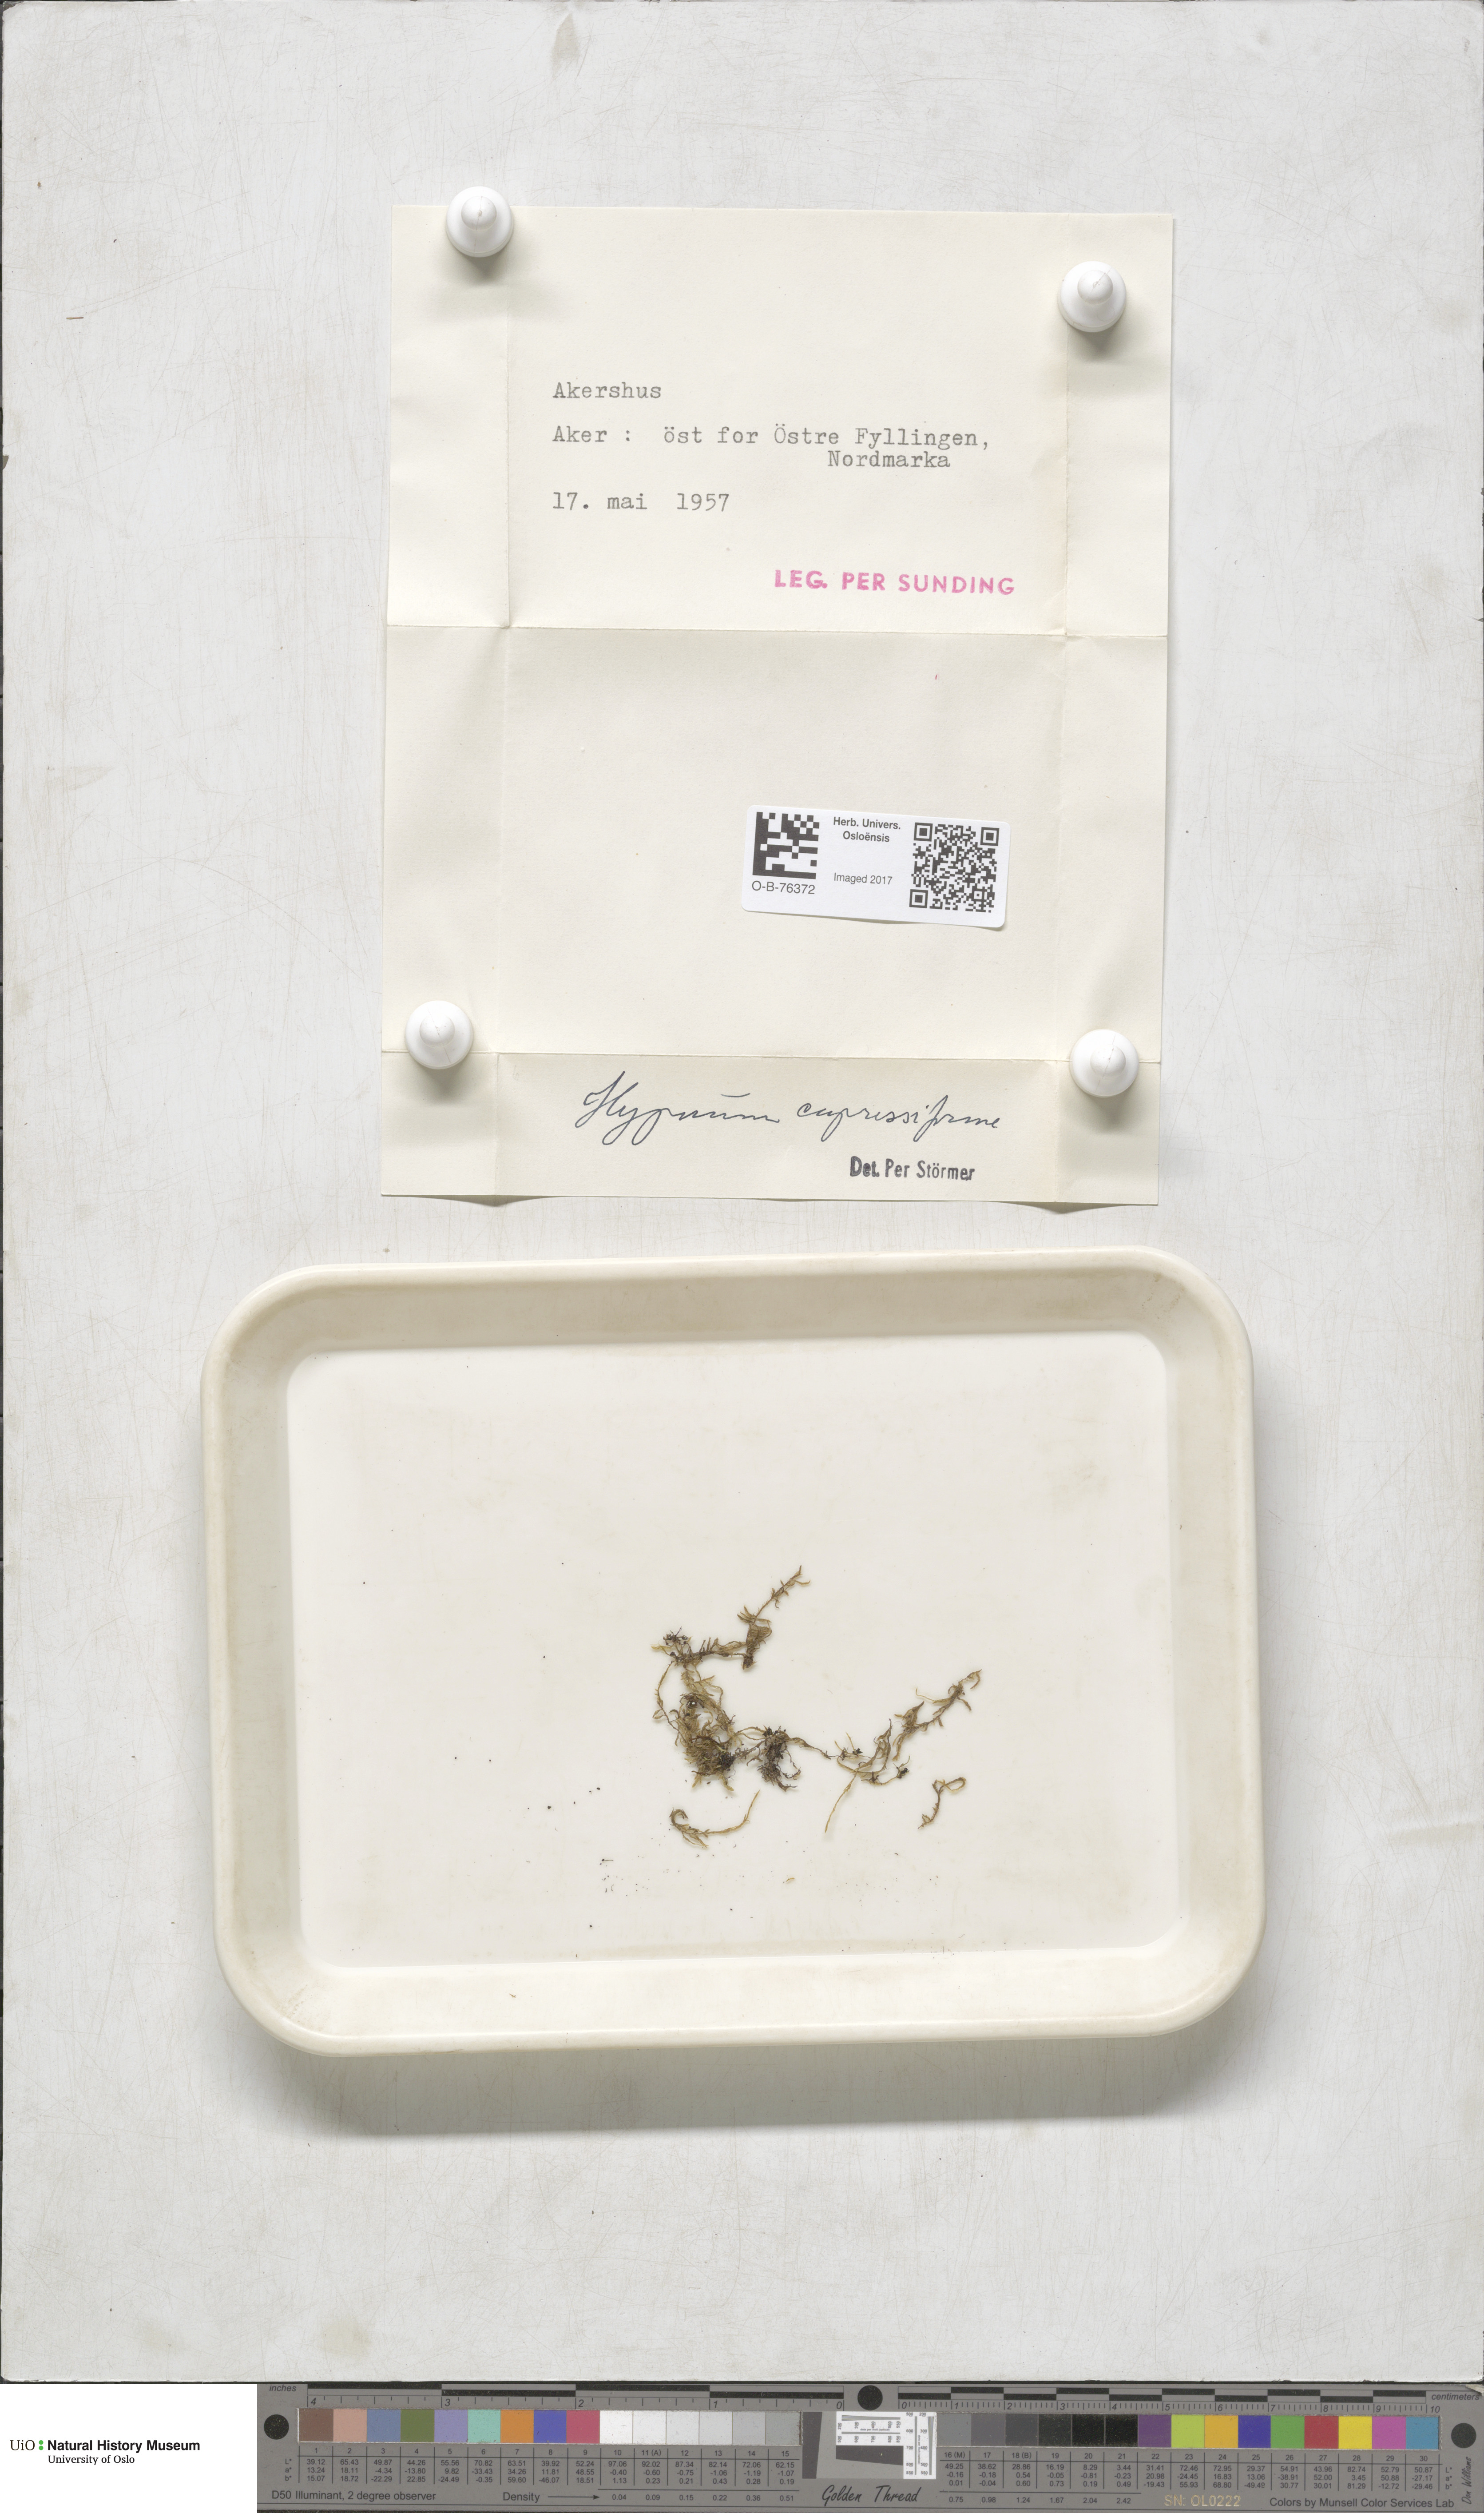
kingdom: Plantae
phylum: Bryophyta
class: Bryopsida
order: Hypnales
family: Hypnaceae
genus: Hypnum
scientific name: Hypnum cupressiforme
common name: Cypress-leaved plait-moss
